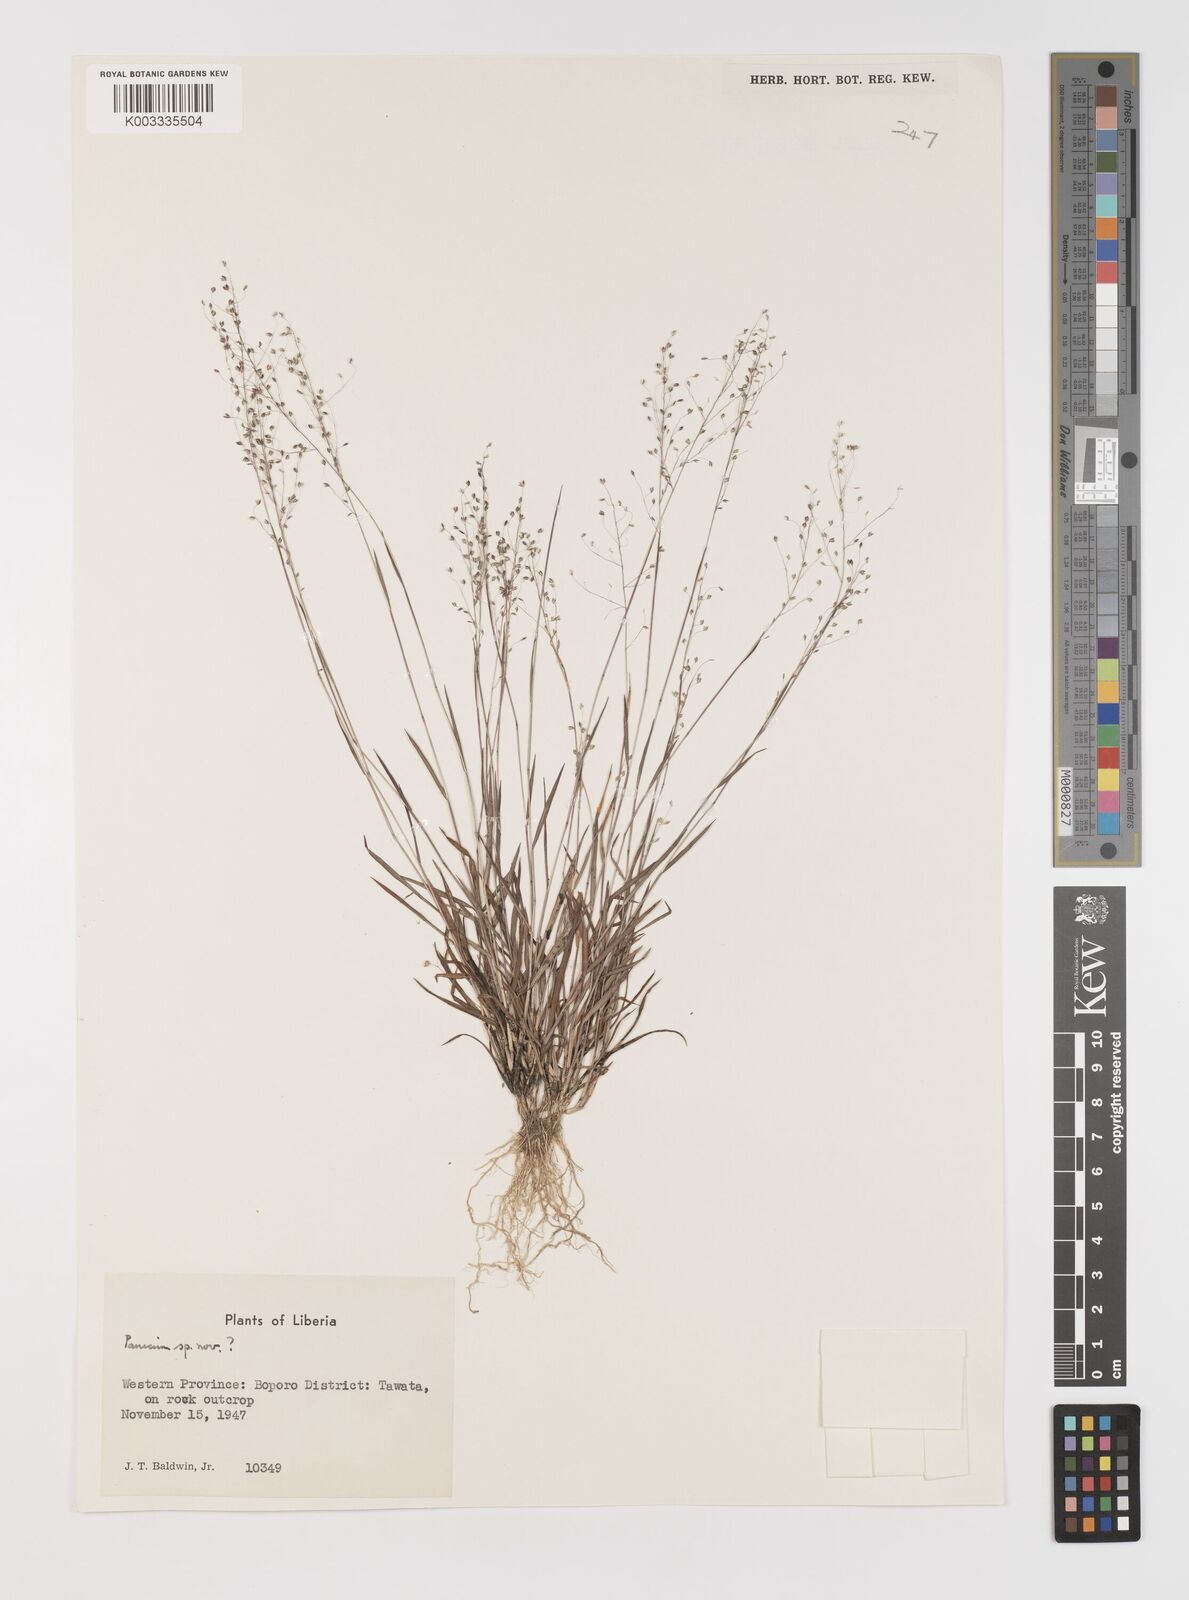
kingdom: Plantae
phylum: Tracheophyta
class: Liliopsida
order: Poales
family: Poaceae
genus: Trichanthecium
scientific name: Trichanthecium tenellum
